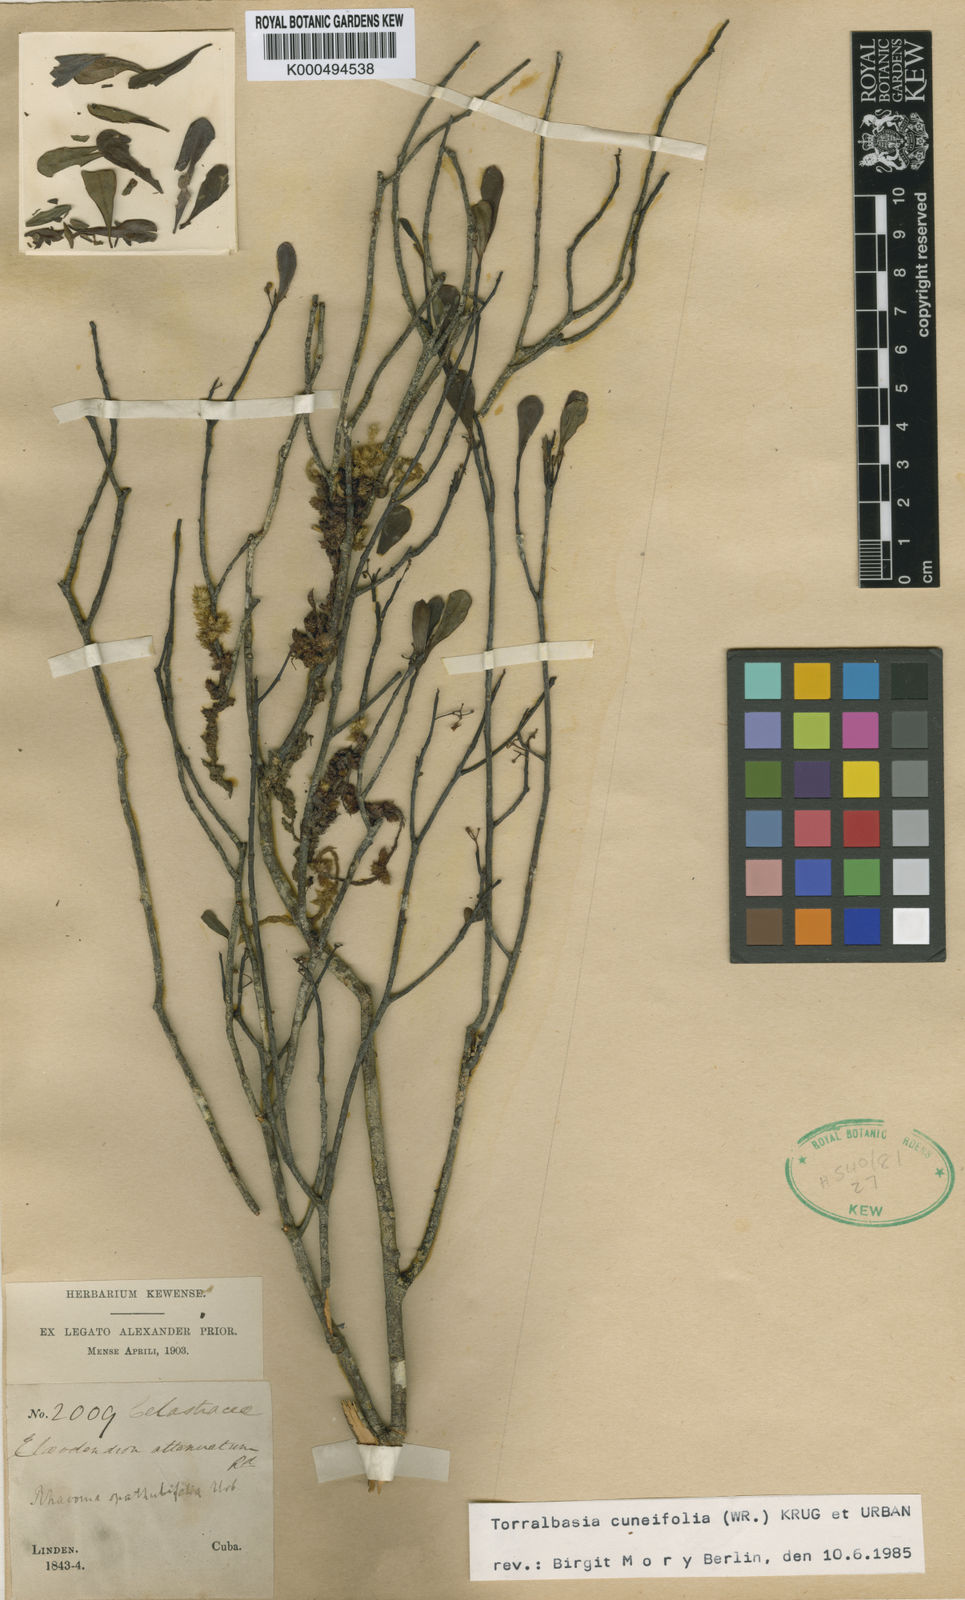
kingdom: Plantae
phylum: Tracheophyta
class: Magnoliopsida
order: Celastrales
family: Celastraceae
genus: Torralbasia
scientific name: Torralbasia cuneifolia
